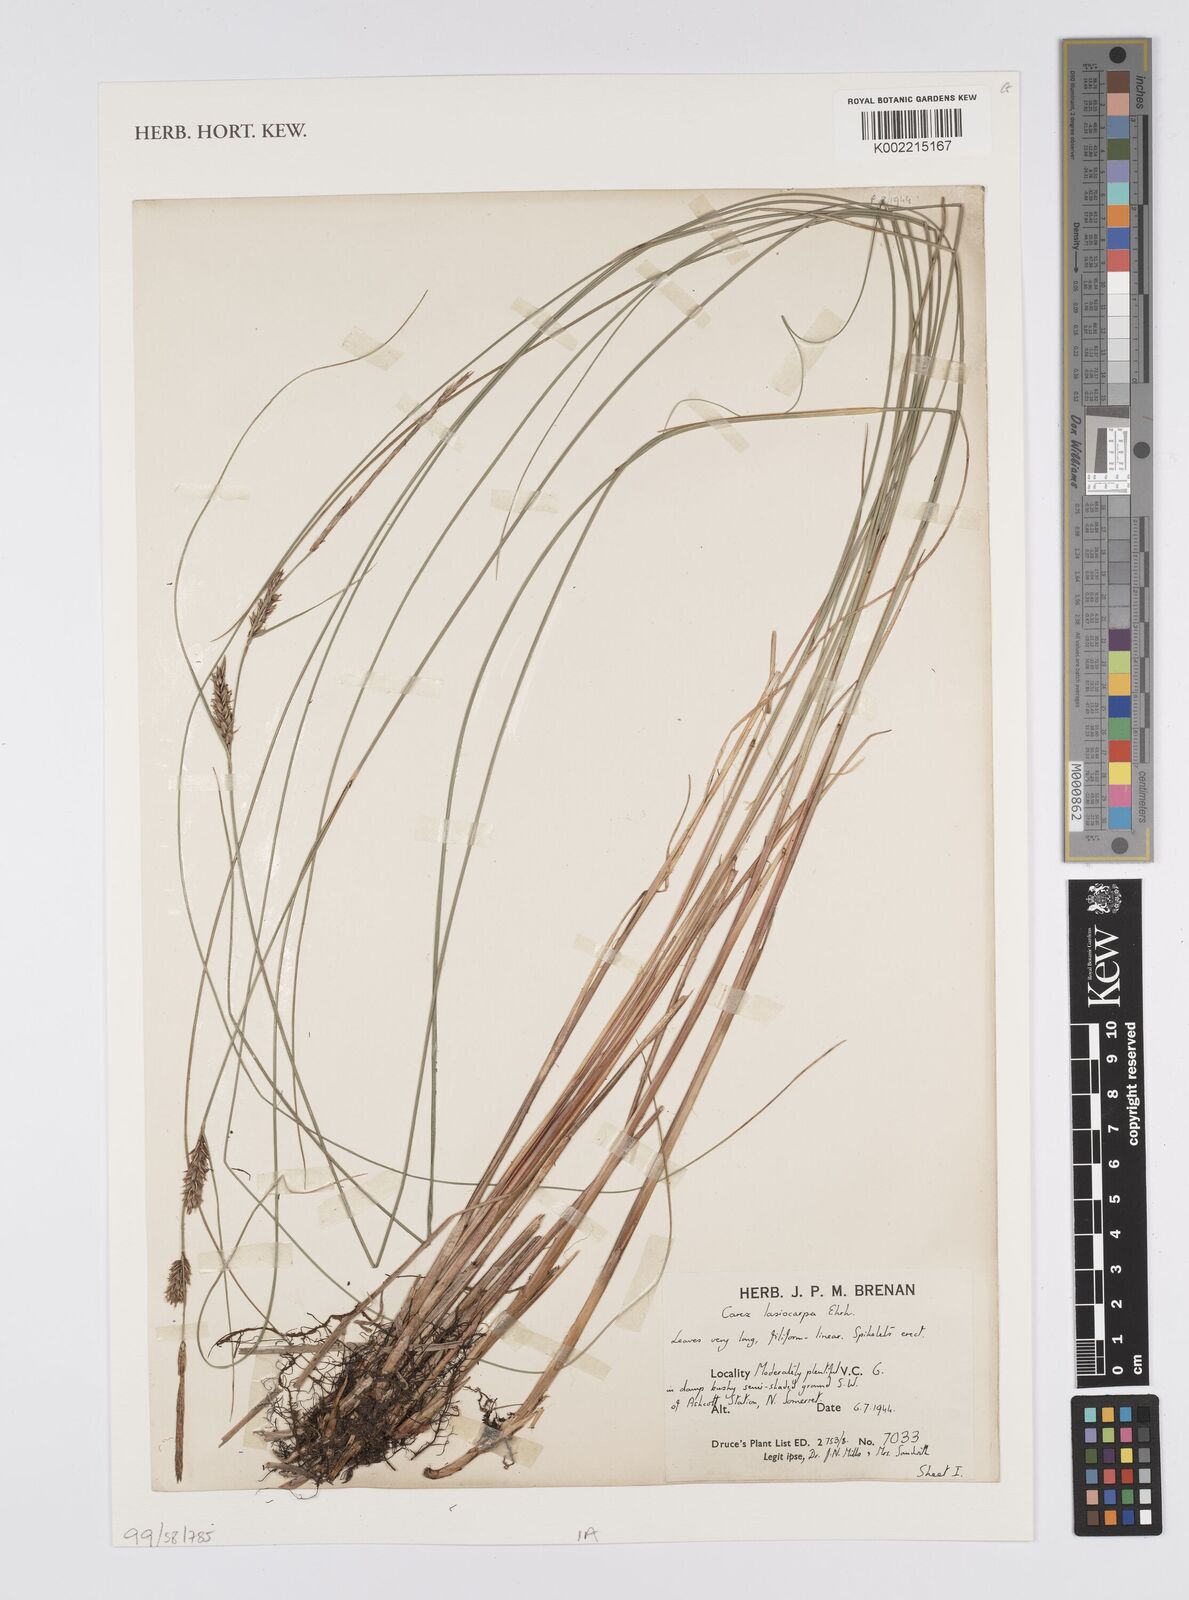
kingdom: Plantae
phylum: Tracheophyta
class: Liliopsida
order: Poales
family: Cyperaceae
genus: Carex
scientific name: Carex lasiocarpa
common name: Slender sedge
